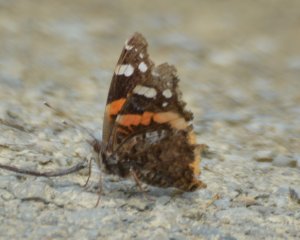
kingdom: Animalia
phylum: Arthropoda
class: Insecta
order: Lepidoptera
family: Nymphalidae
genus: Vanessa
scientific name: Vanessa atalanta
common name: Red Admiral
